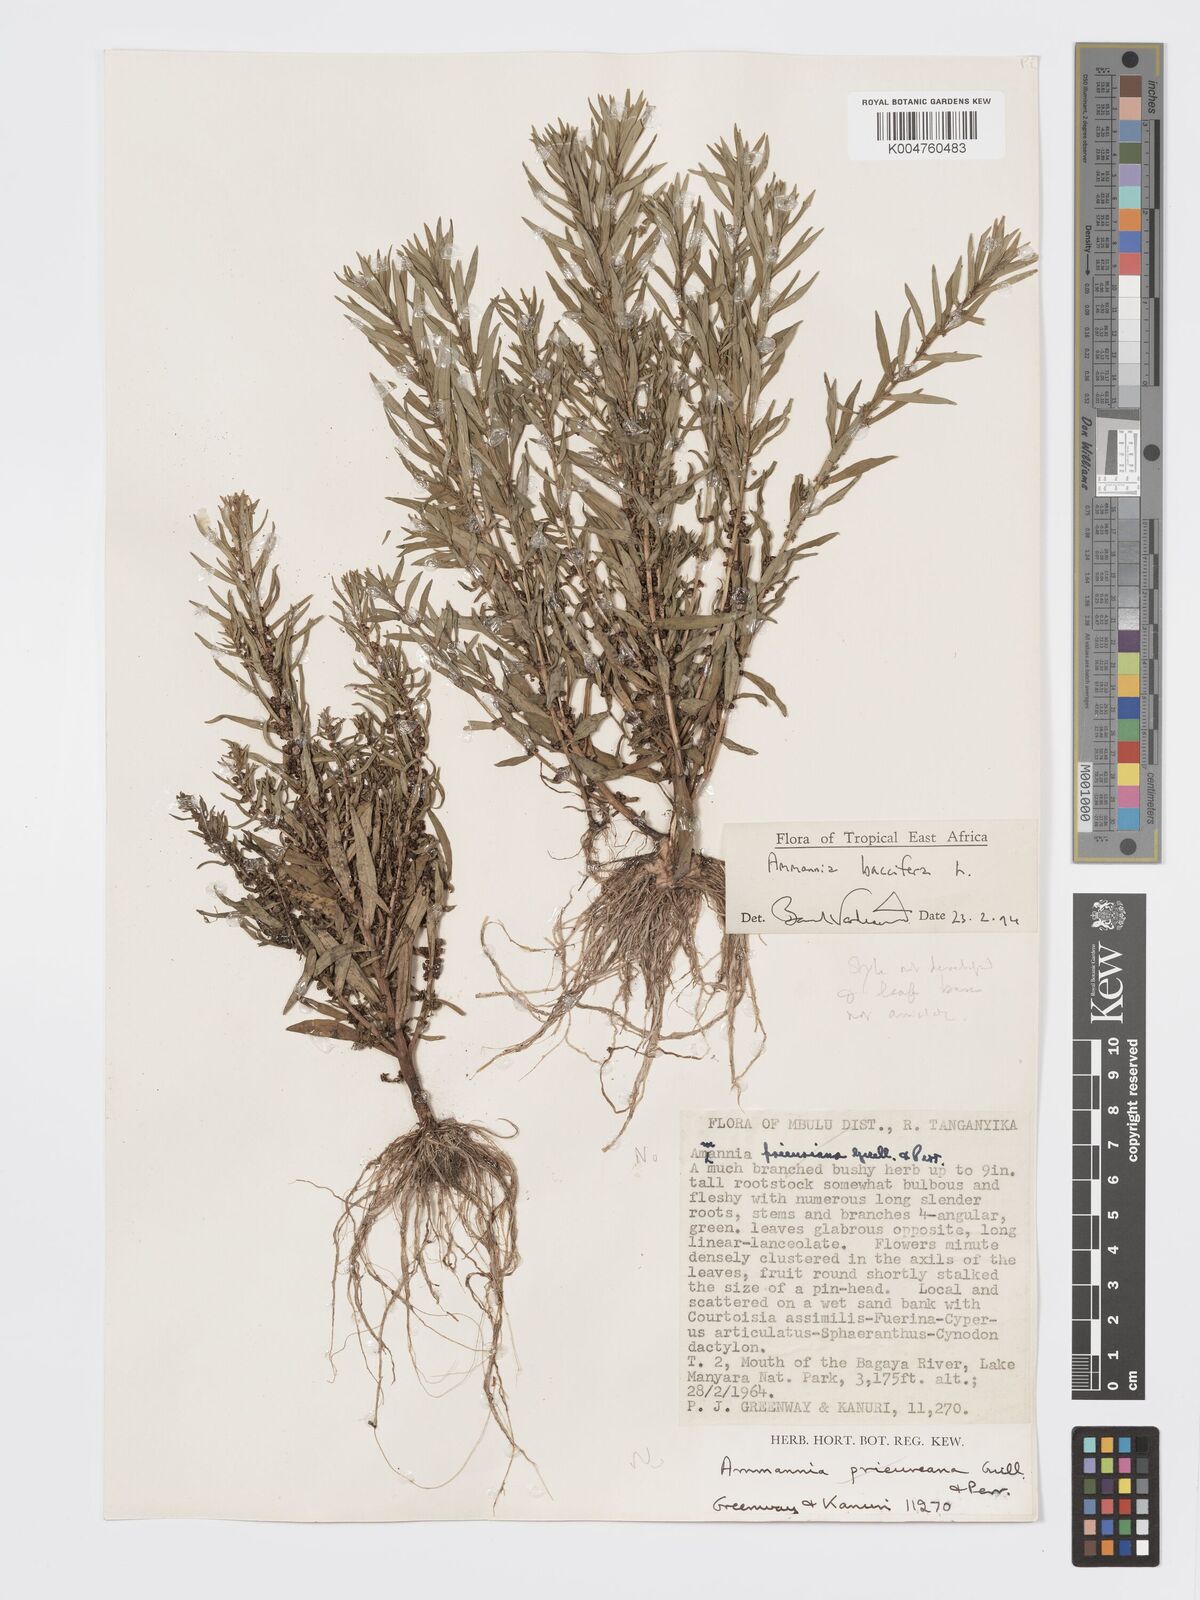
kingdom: Plantae
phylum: Tracheophyta
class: Magnoliopsida
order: Myrtales
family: Lythraceae
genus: Ammannia
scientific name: Ammannia
